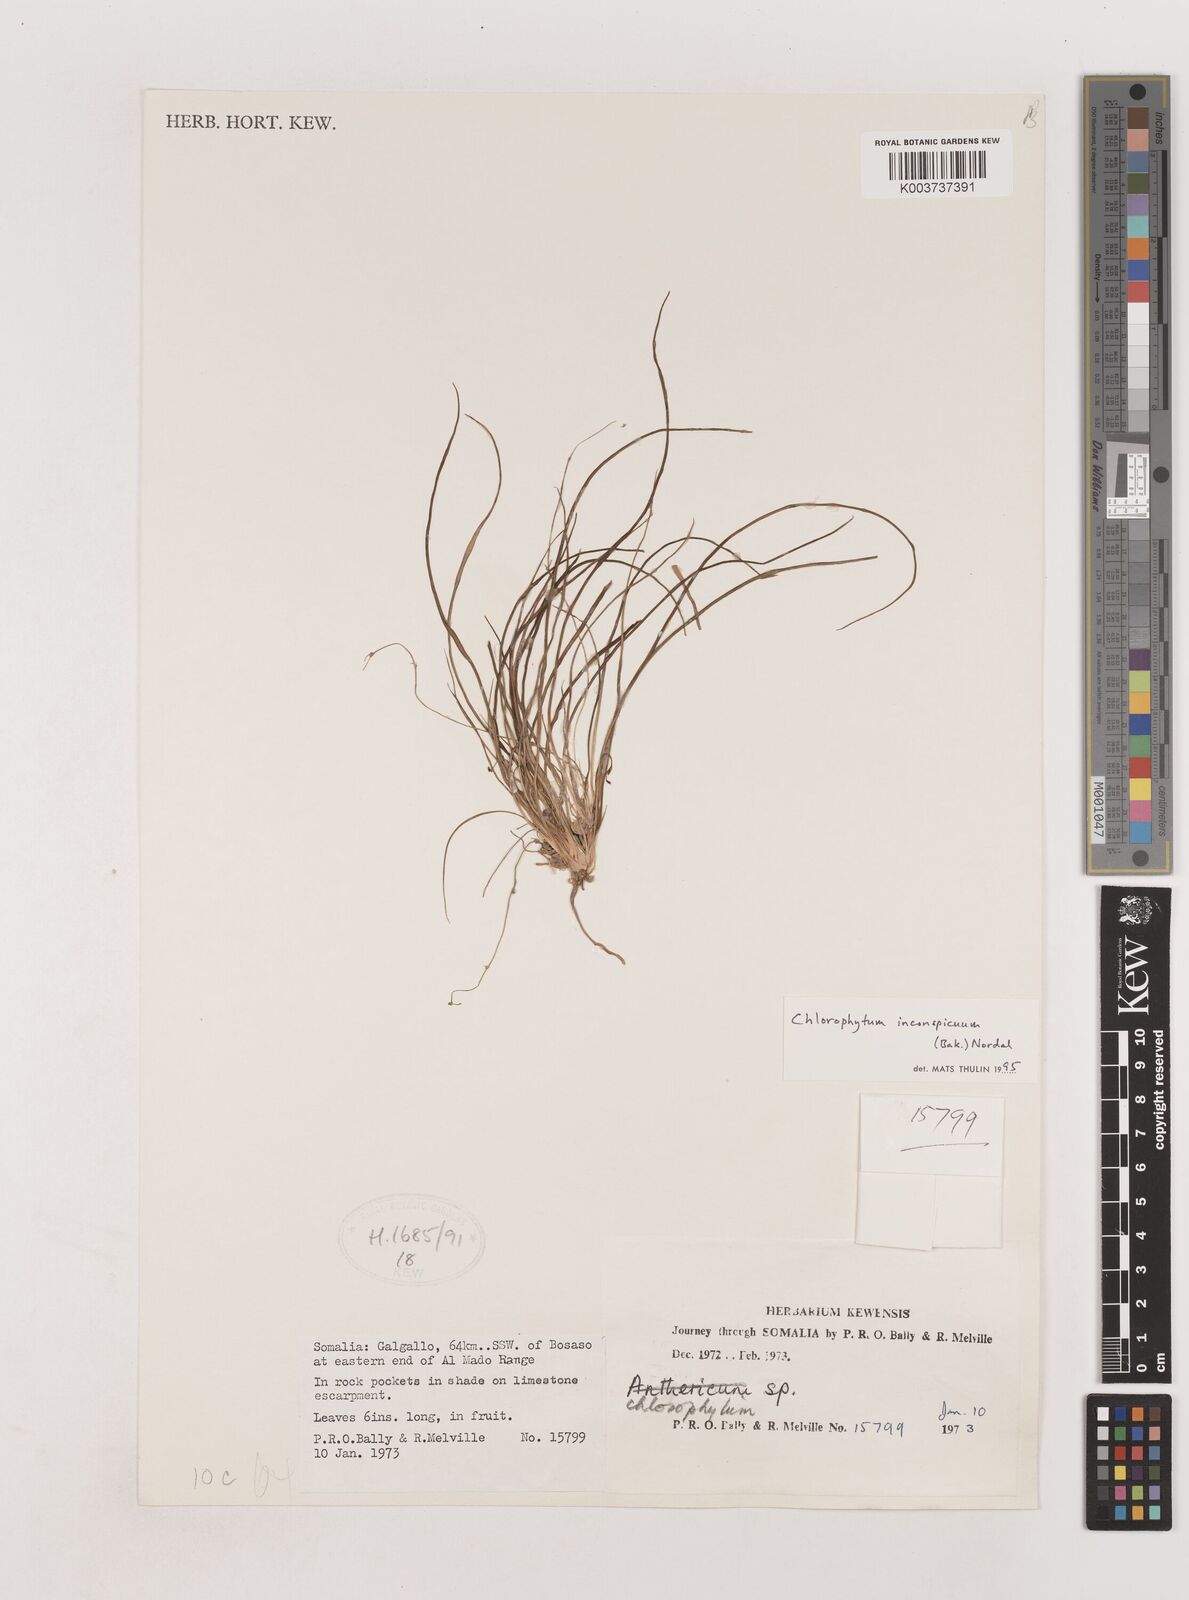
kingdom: Plantae
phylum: Tracheophyta
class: Liliopsida
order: Asparagales
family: Asparagaceae
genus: Chlorophytum
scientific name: Chlorophytum inconspicuum
